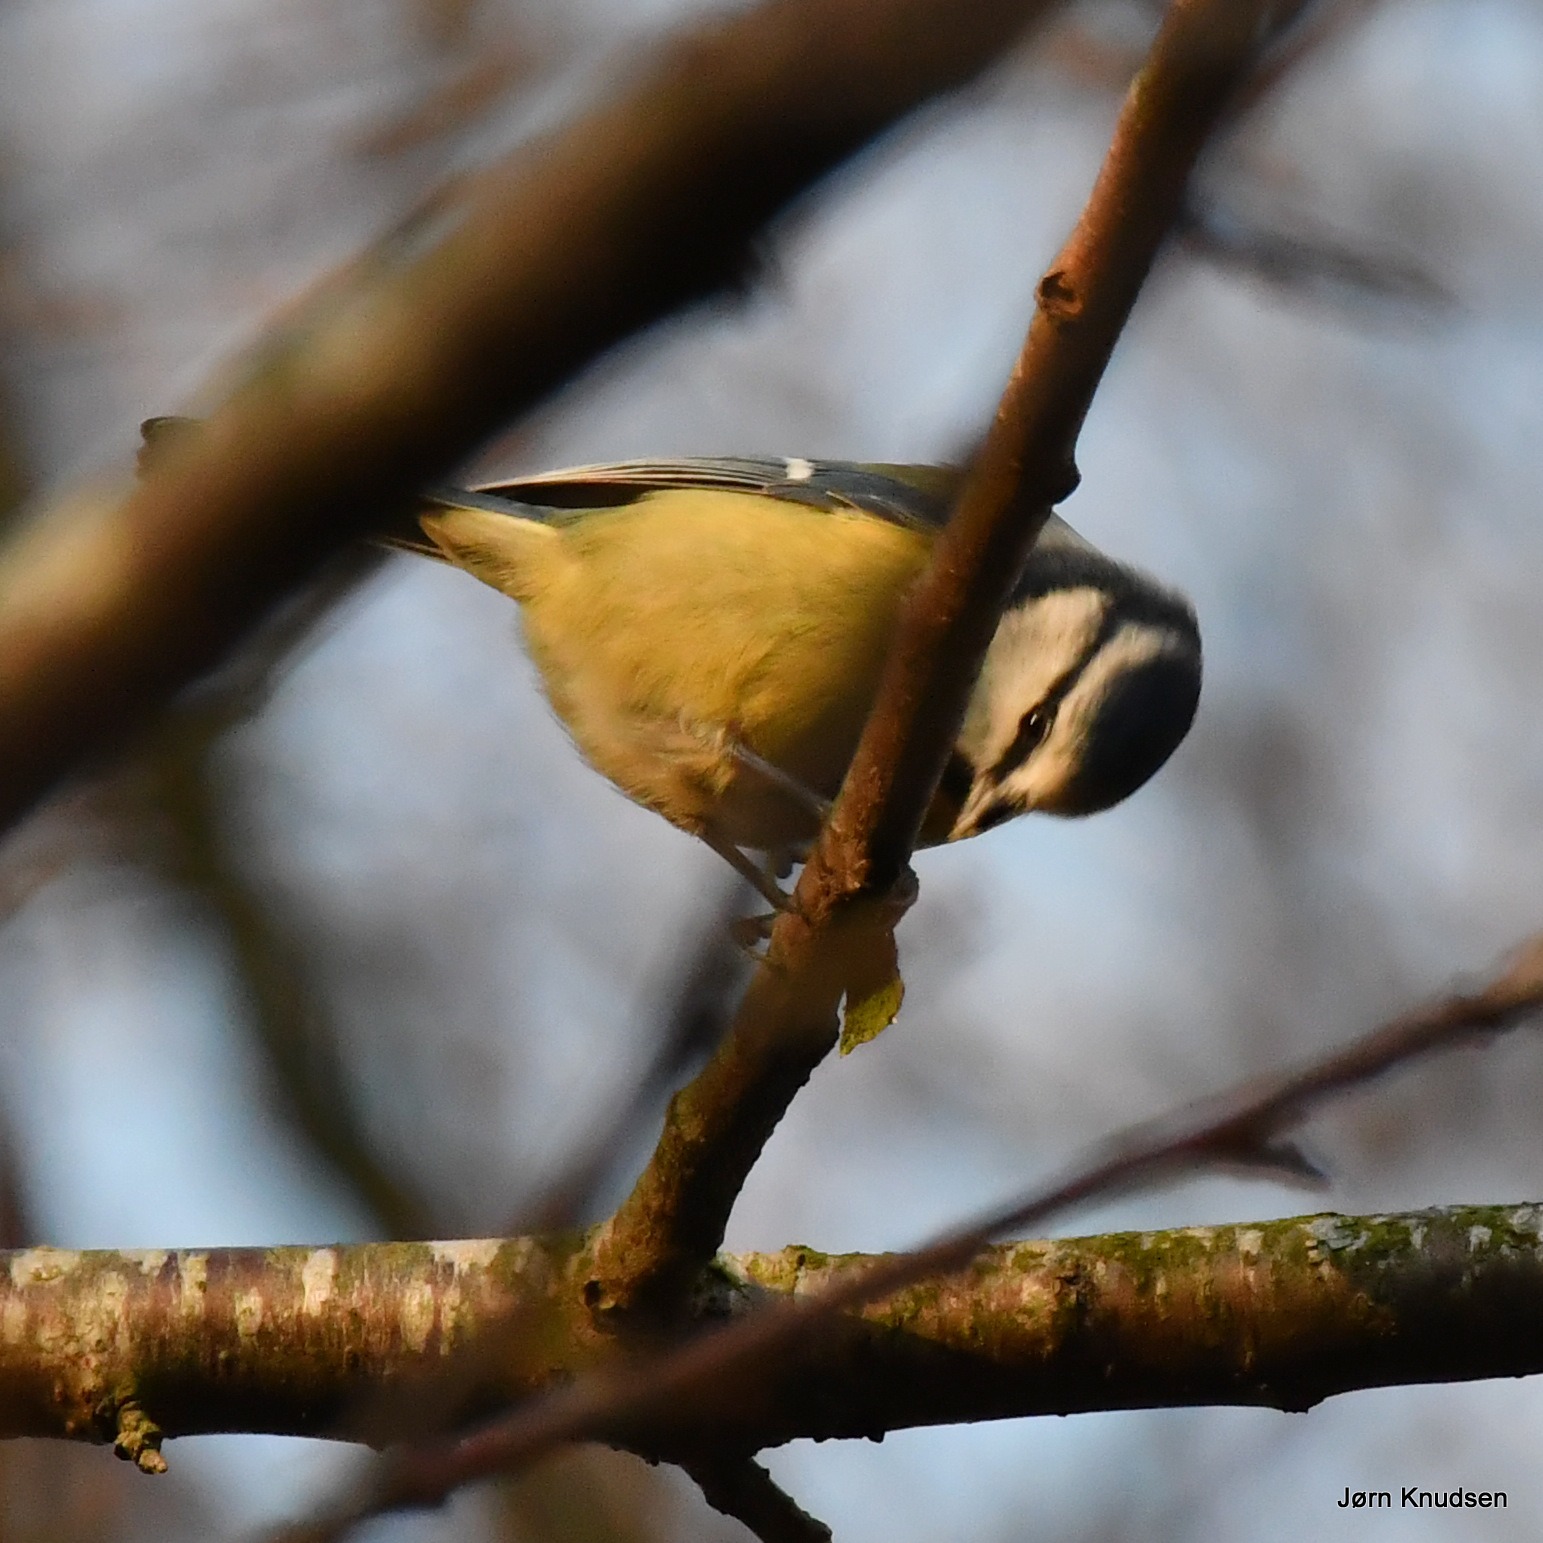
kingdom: Animalia
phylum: Chordata
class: Aves
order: Passeriformes
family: Paridae
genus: Cyanistes
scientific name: Cyanistes caeruleus
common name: Blåmejse
